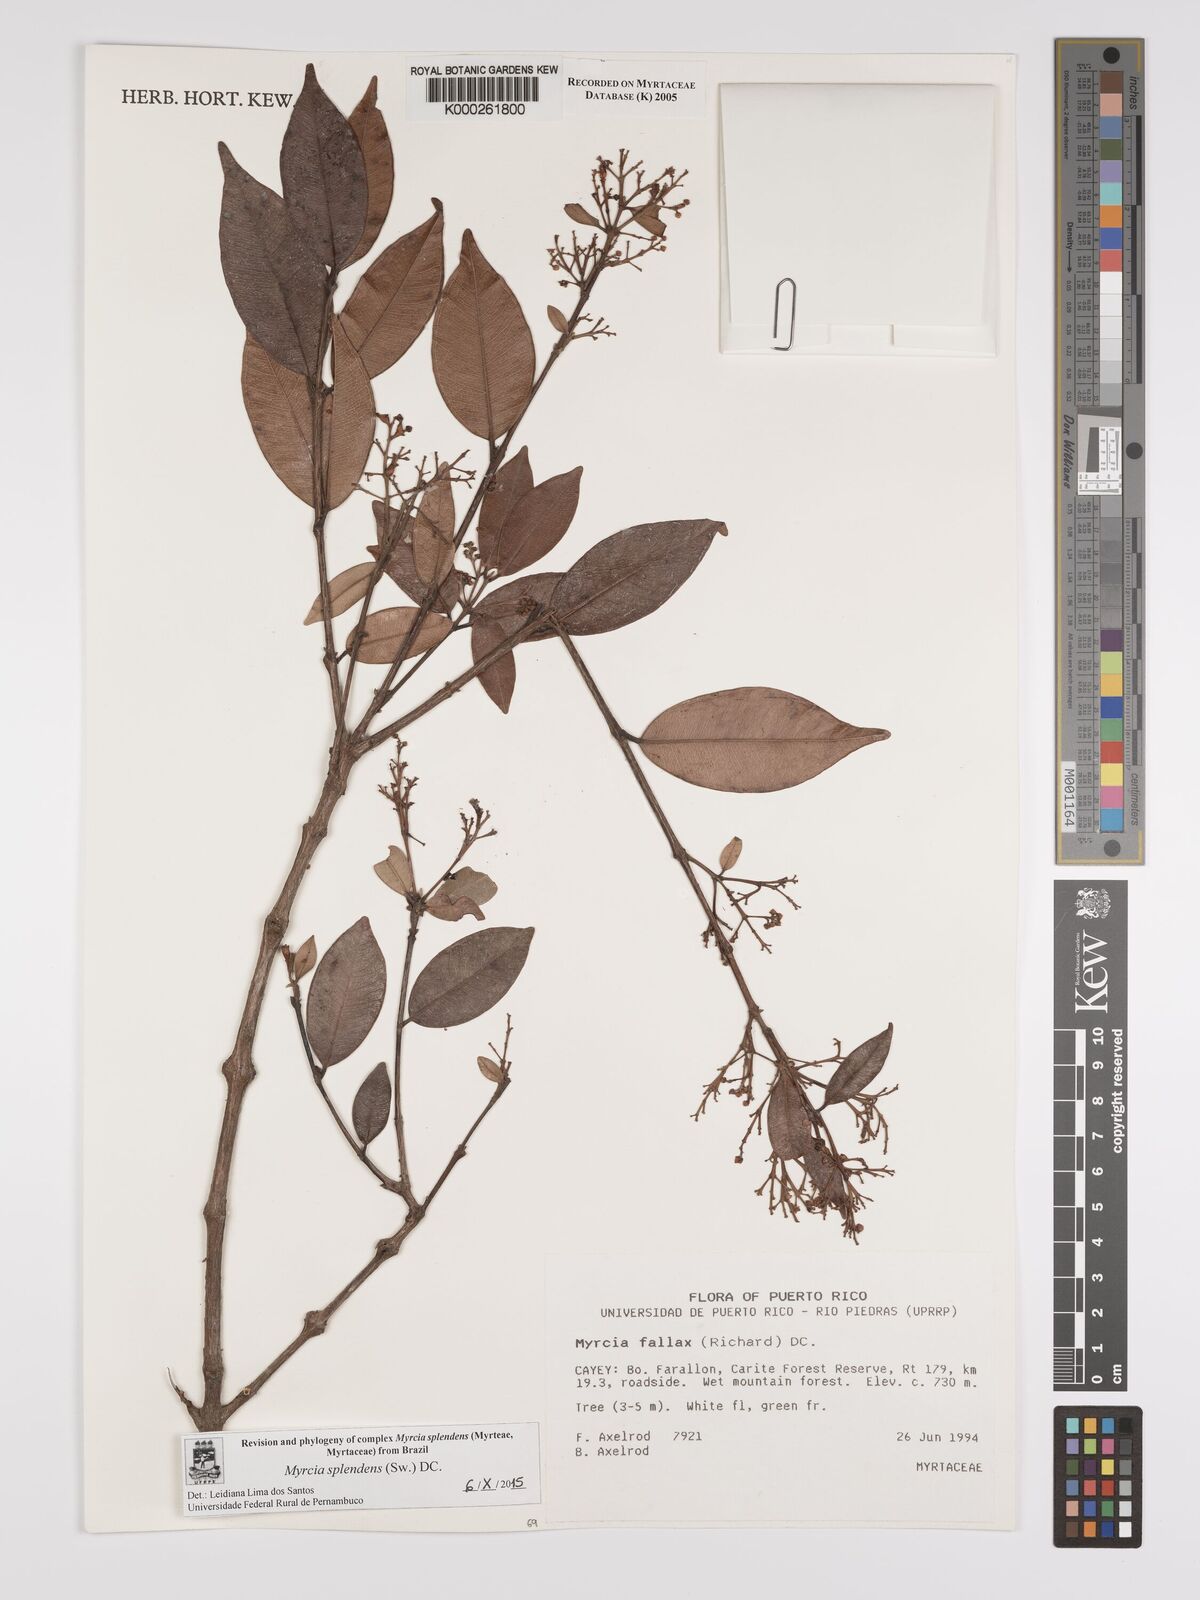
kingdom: Plantae
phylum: Tracheophyta
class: Magnoliopsida
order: Myrtales
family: Myrtaceae
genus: Myrcia
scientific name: Myrcia splendens
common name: Surinam cherry
